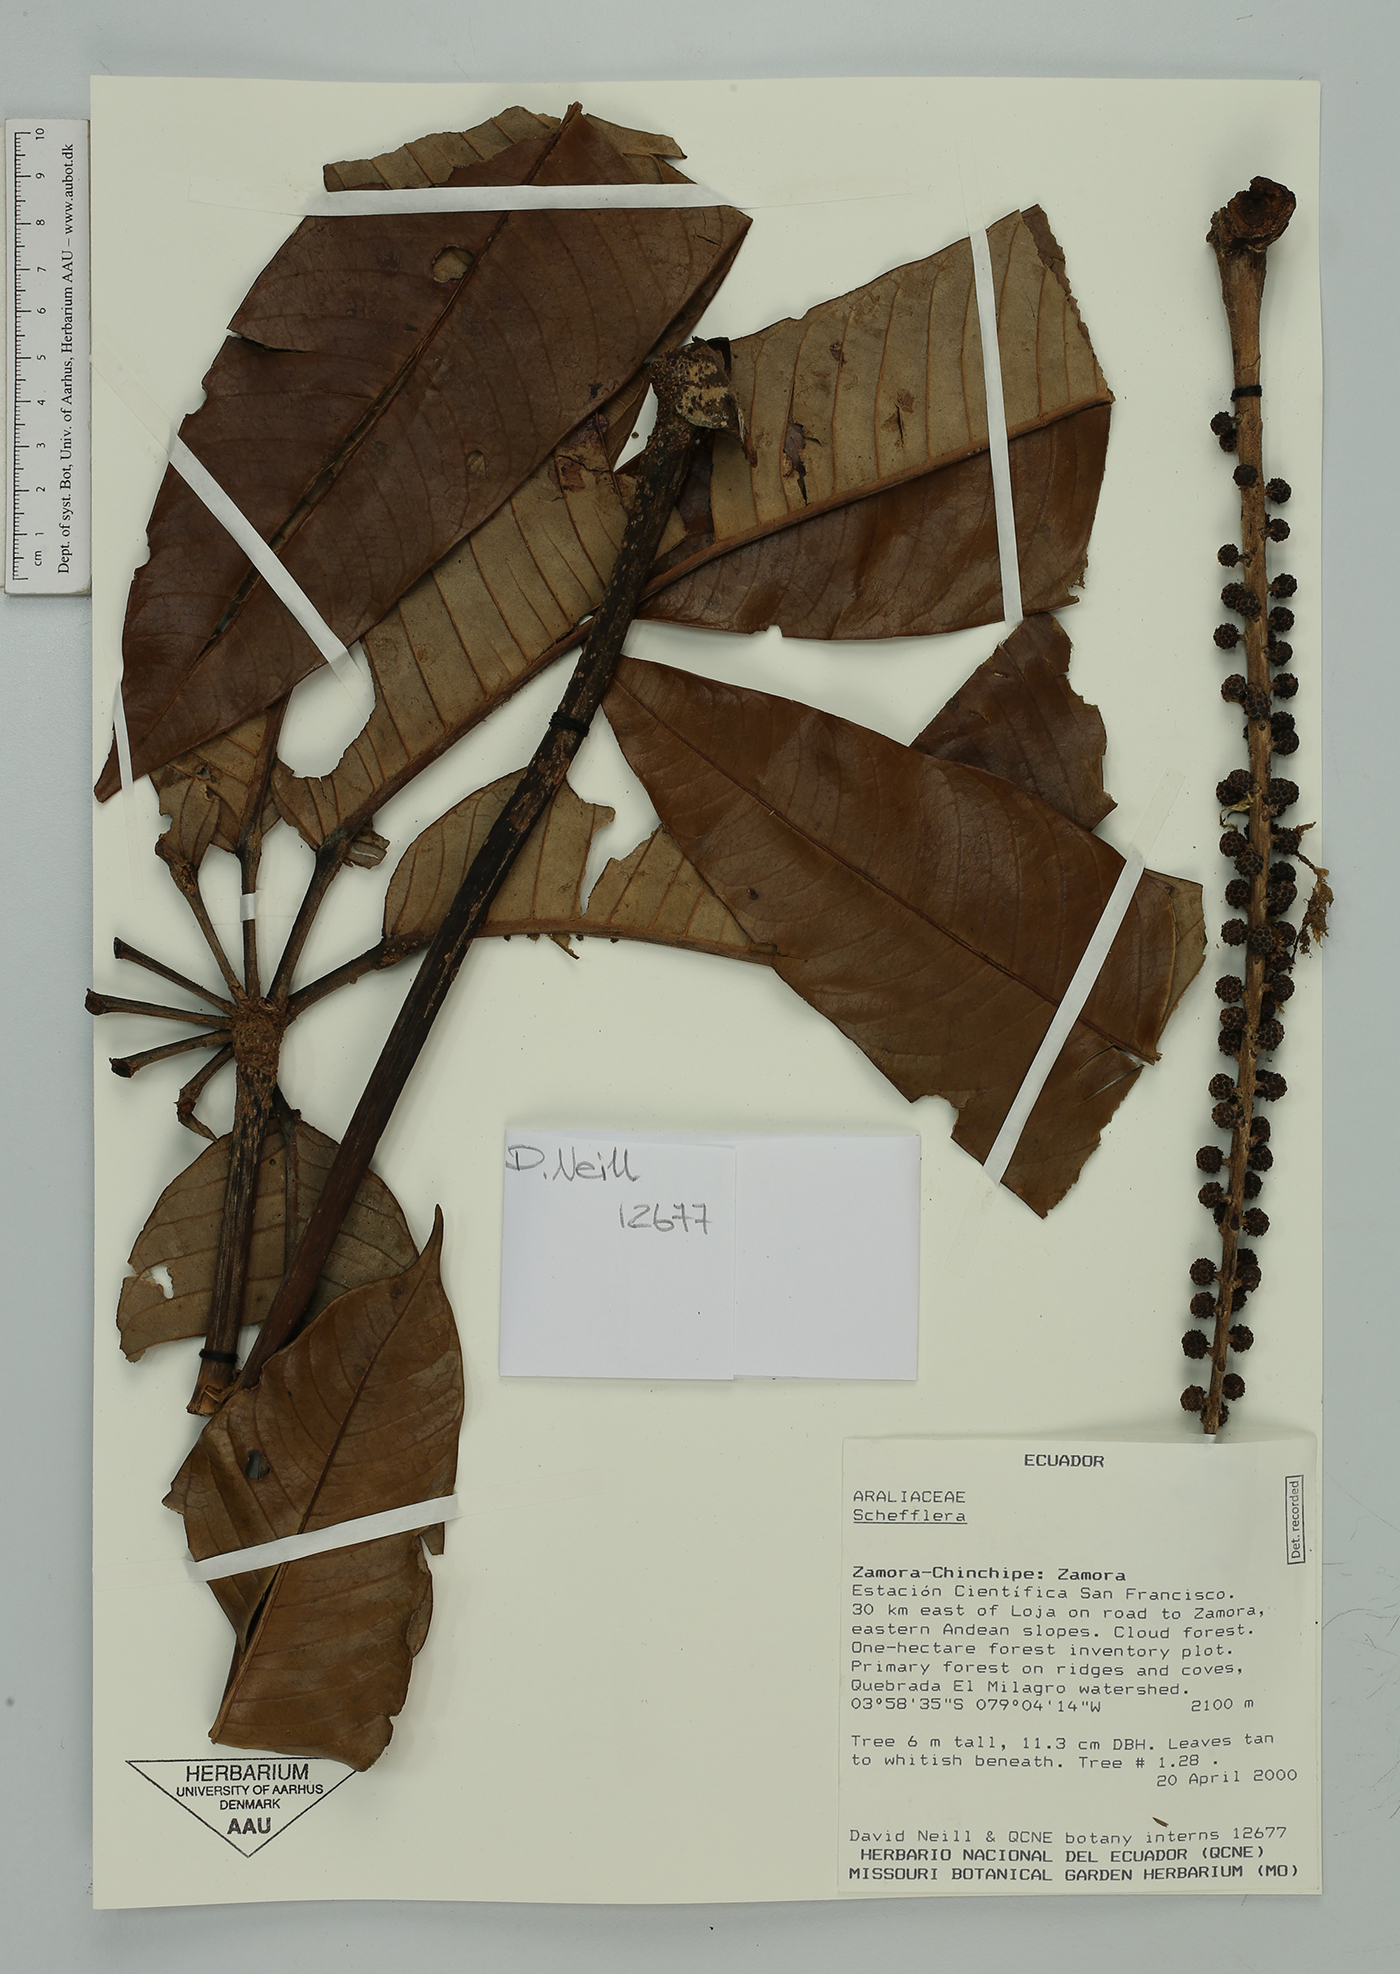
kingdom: Plantae
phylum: Tracheophyta
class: Magnoliopsida
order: Apiales
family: Araliaceae
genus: Sciodaphyllum
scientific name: Sciodaphyllum
